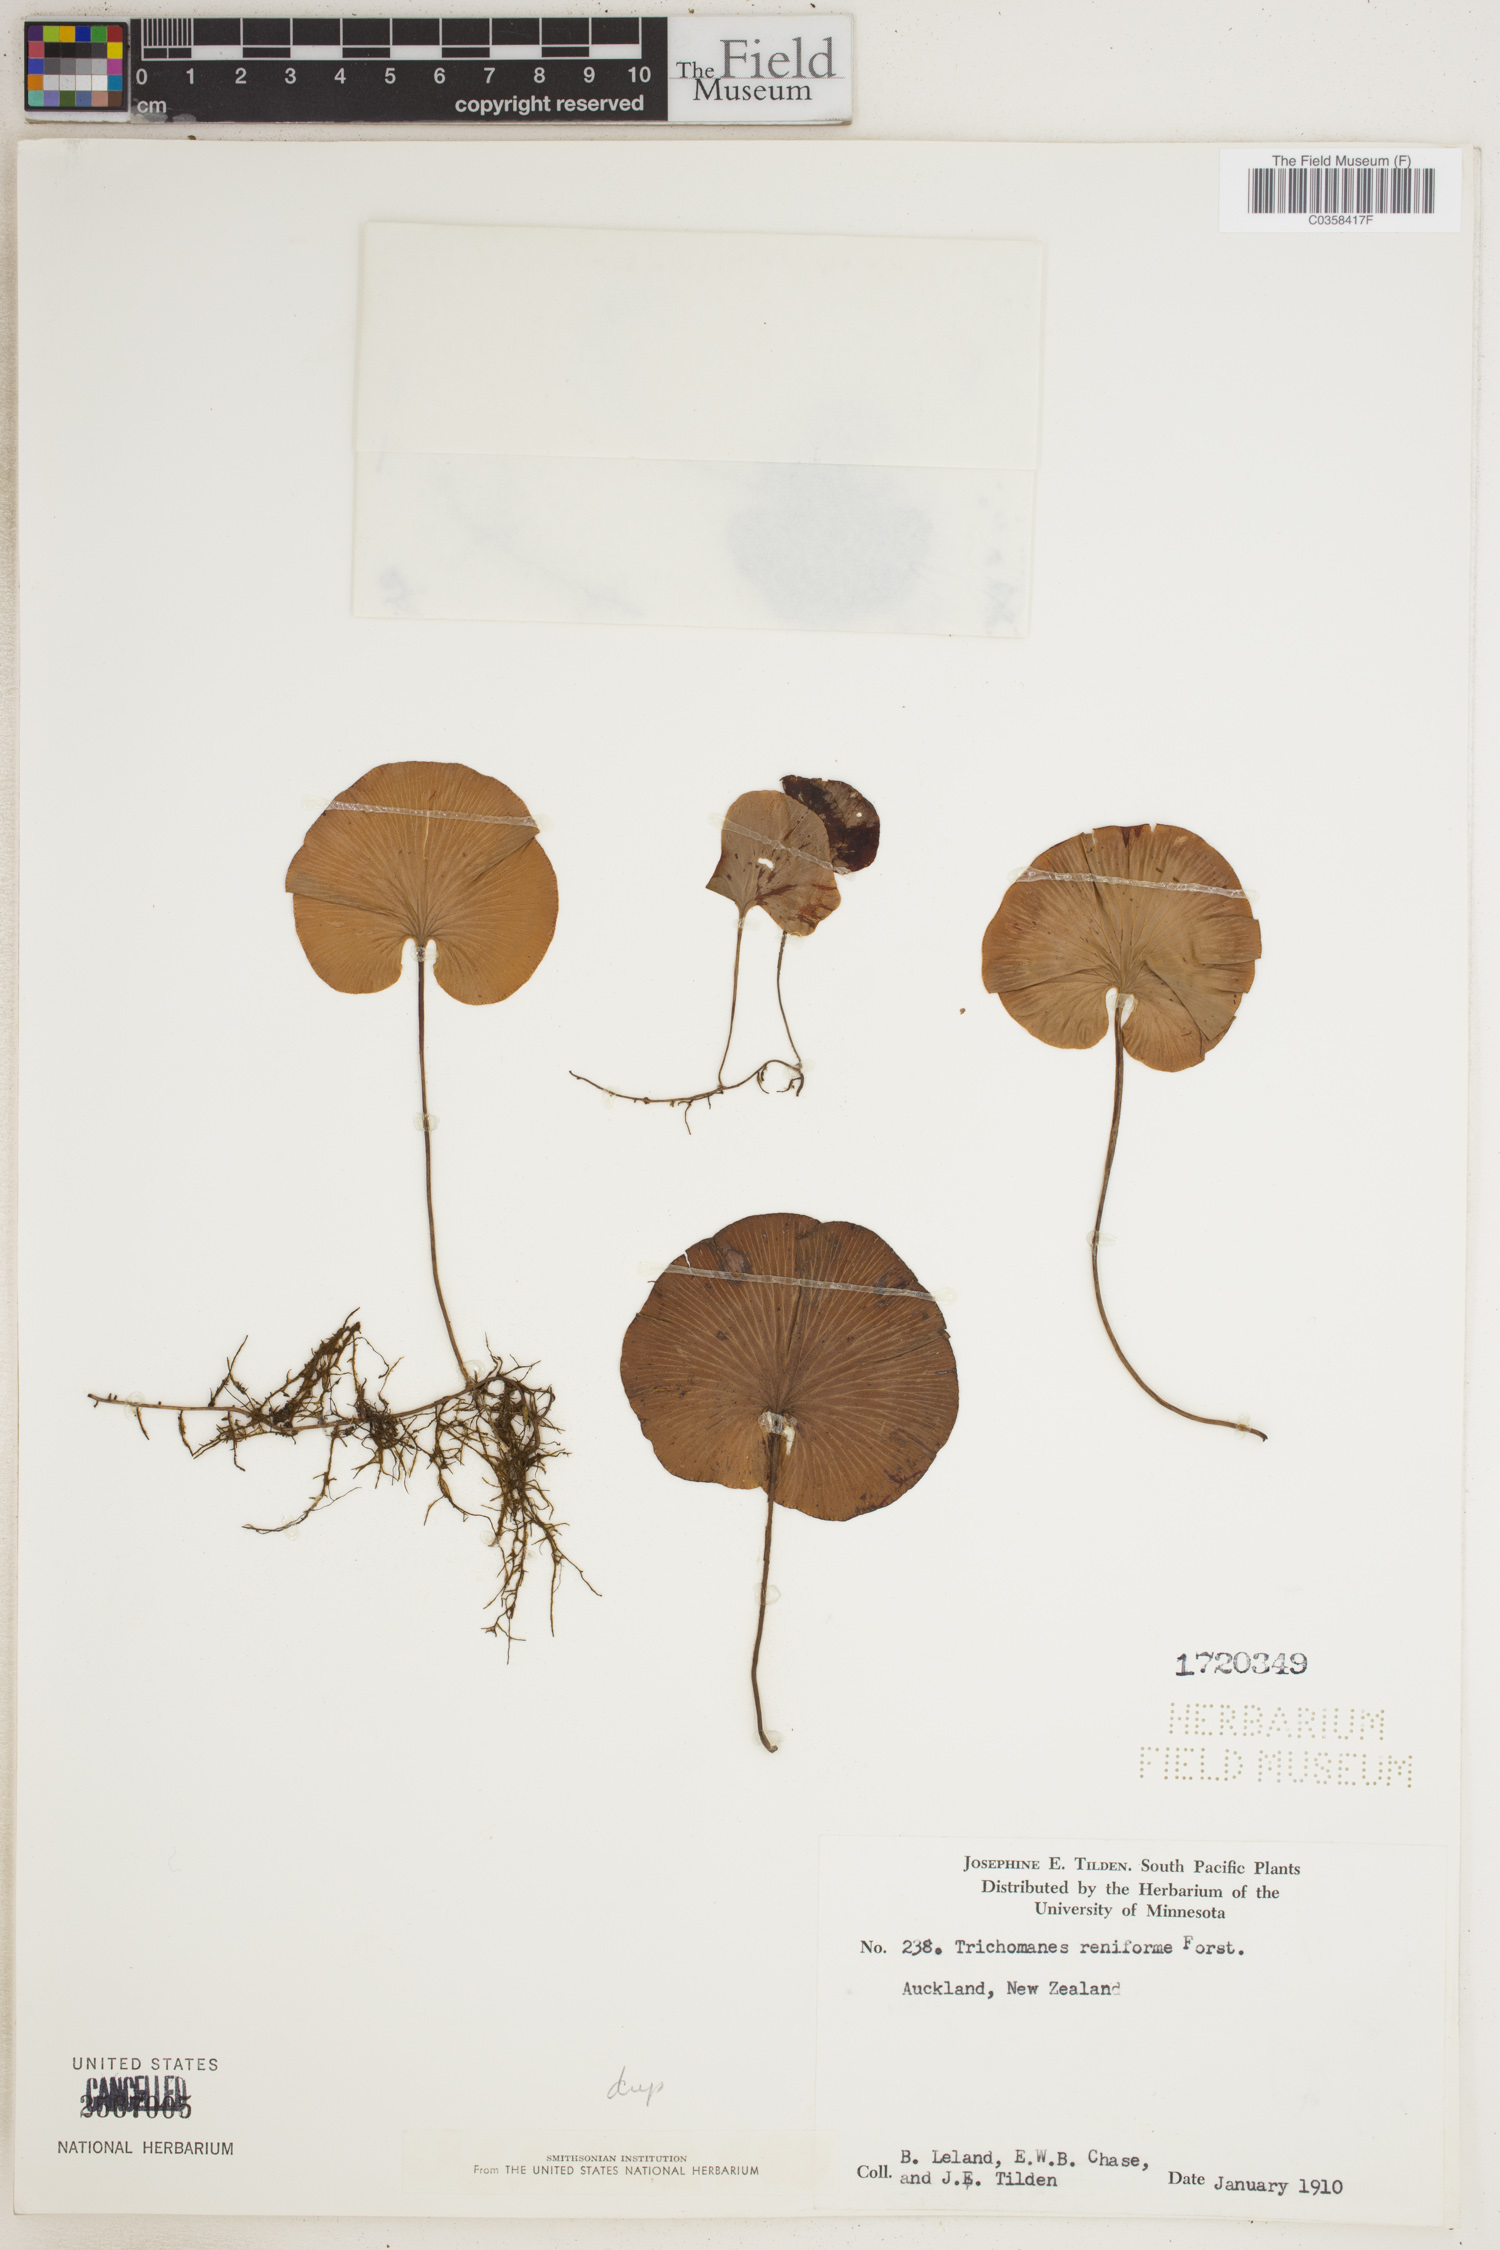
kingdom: Plantae
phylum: Tracheophyta
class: Polypodiopsida
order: Hymenophyllales
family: Hymenophyllaceae
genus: Hymenophyllum
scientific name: Hymenophyllum nephrophyllum
